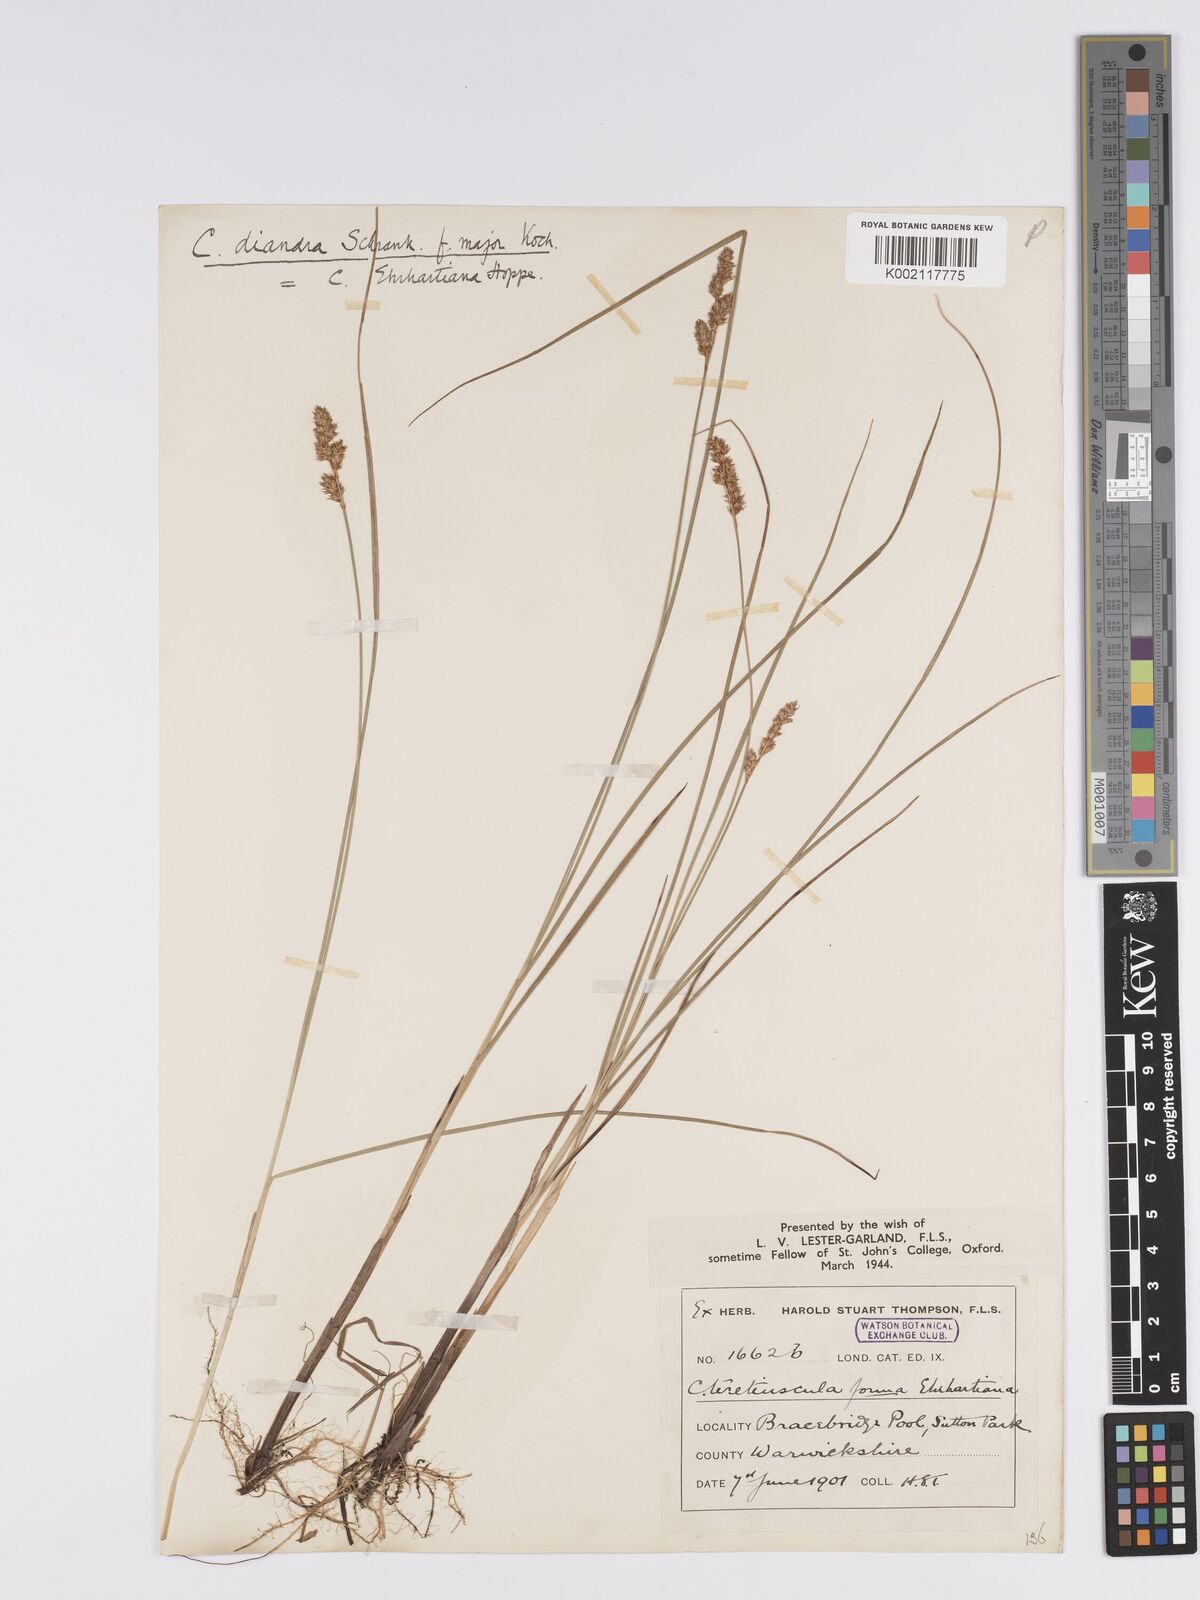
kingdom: Plantae
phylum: Tracheophyta
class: Liliopsida
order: Poales
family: Cyperaceae
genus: Carex
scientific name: Carex diandra
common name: Lesser tussock-sedge
